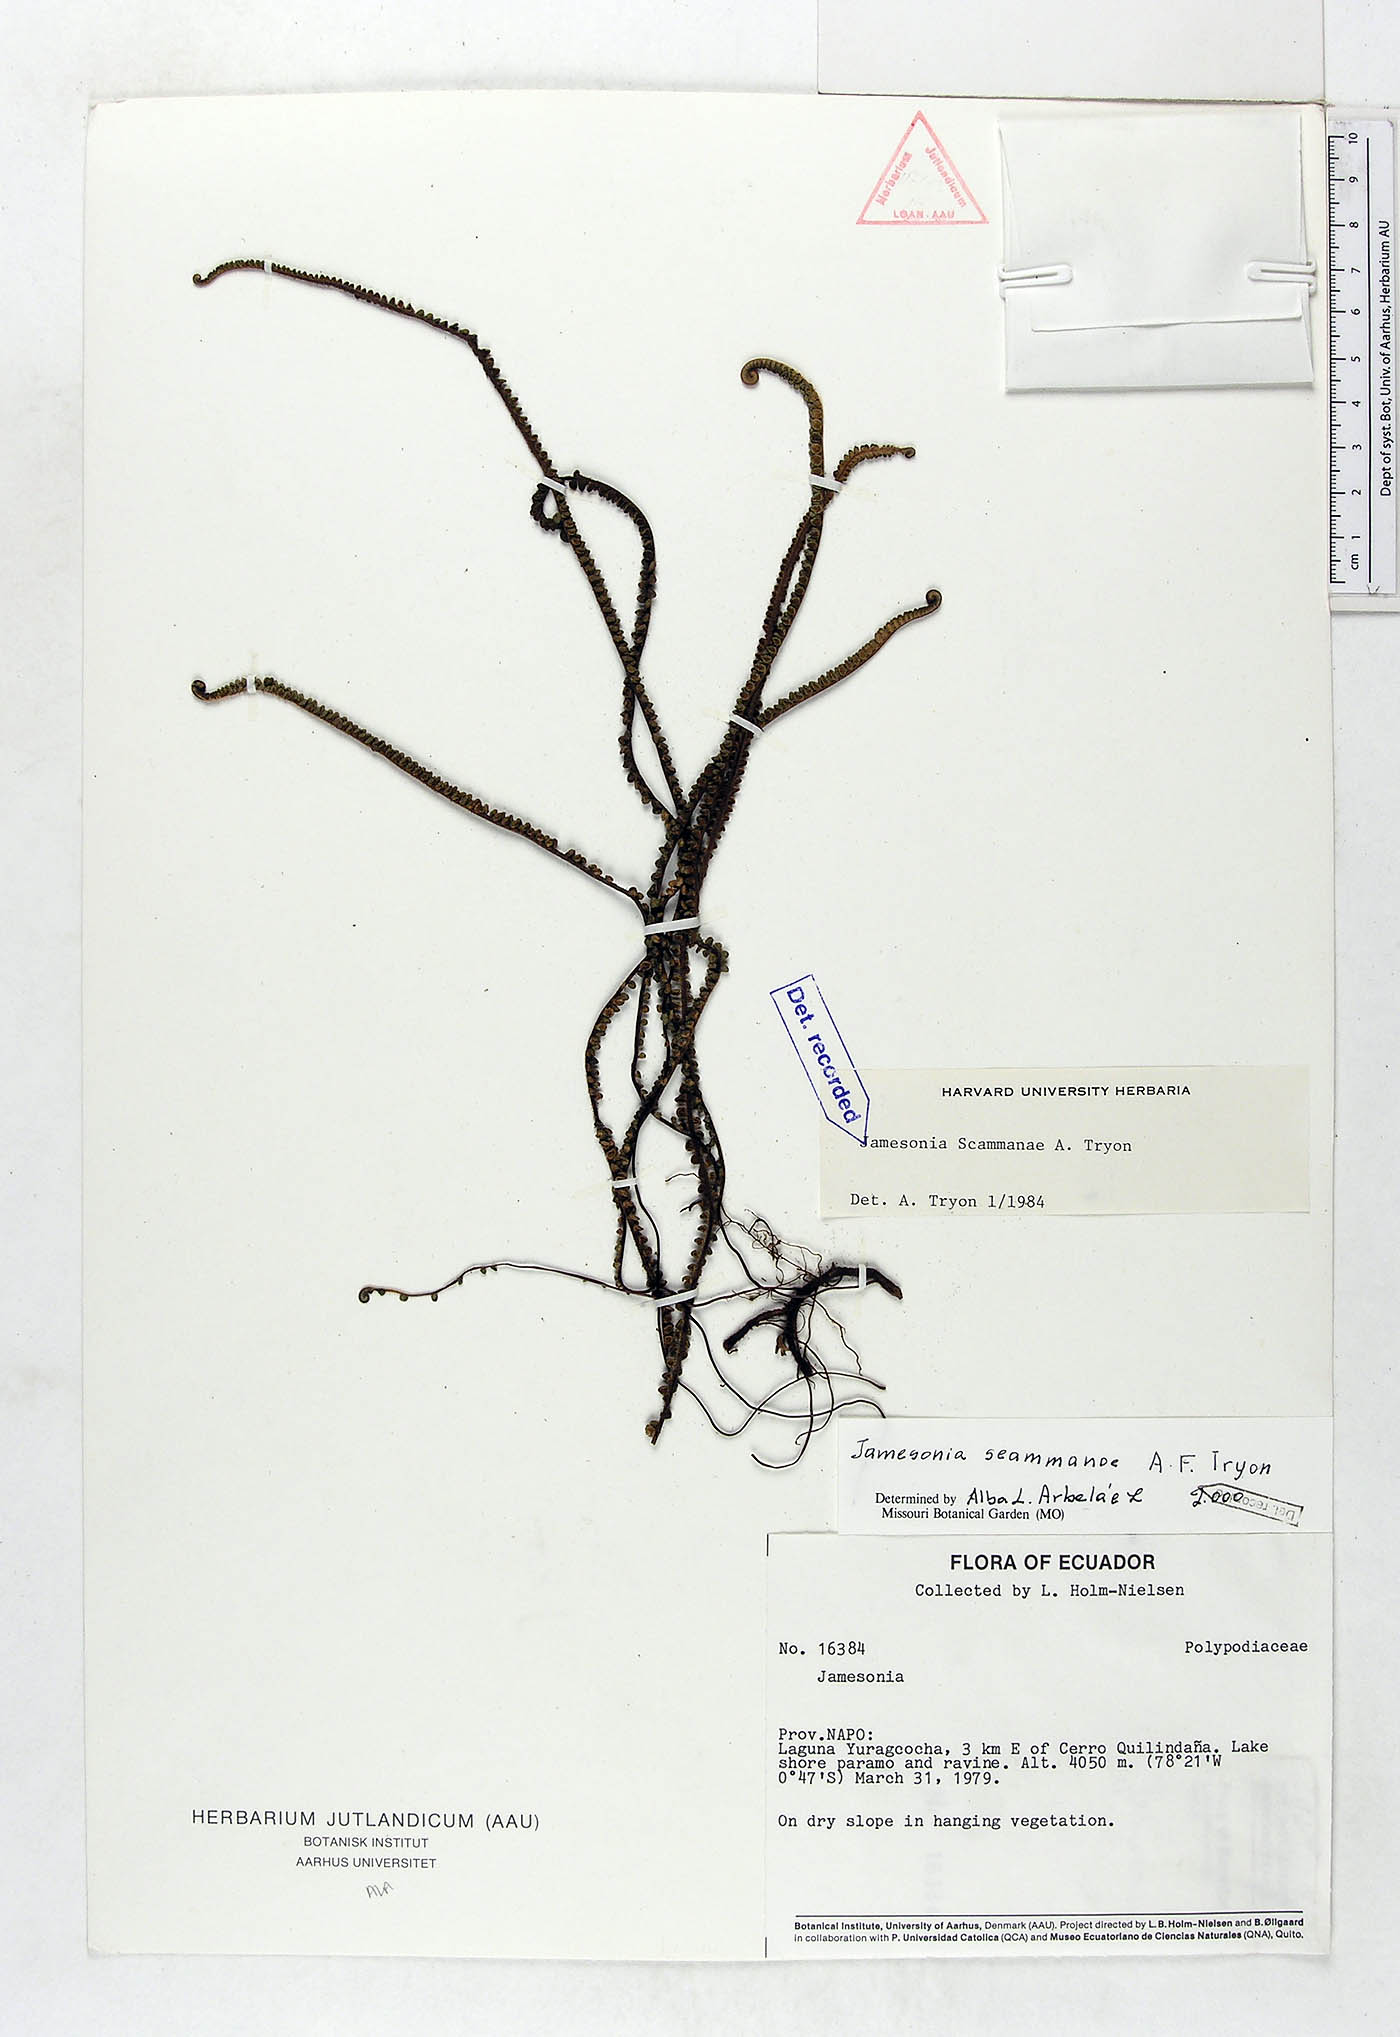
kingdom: Plantae
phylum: Tracheophyta
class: Polypodiopsida
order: Polypodiales
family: Pteridaceae
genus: Jamesonia
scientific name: Jamesonia scammanae
